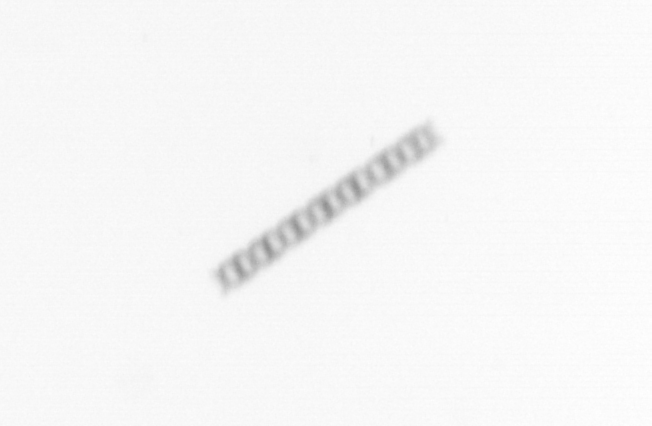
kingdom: Chromista
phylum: Ochrophyta
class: Bacillariophyceae
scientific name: Bacillariophyceae
